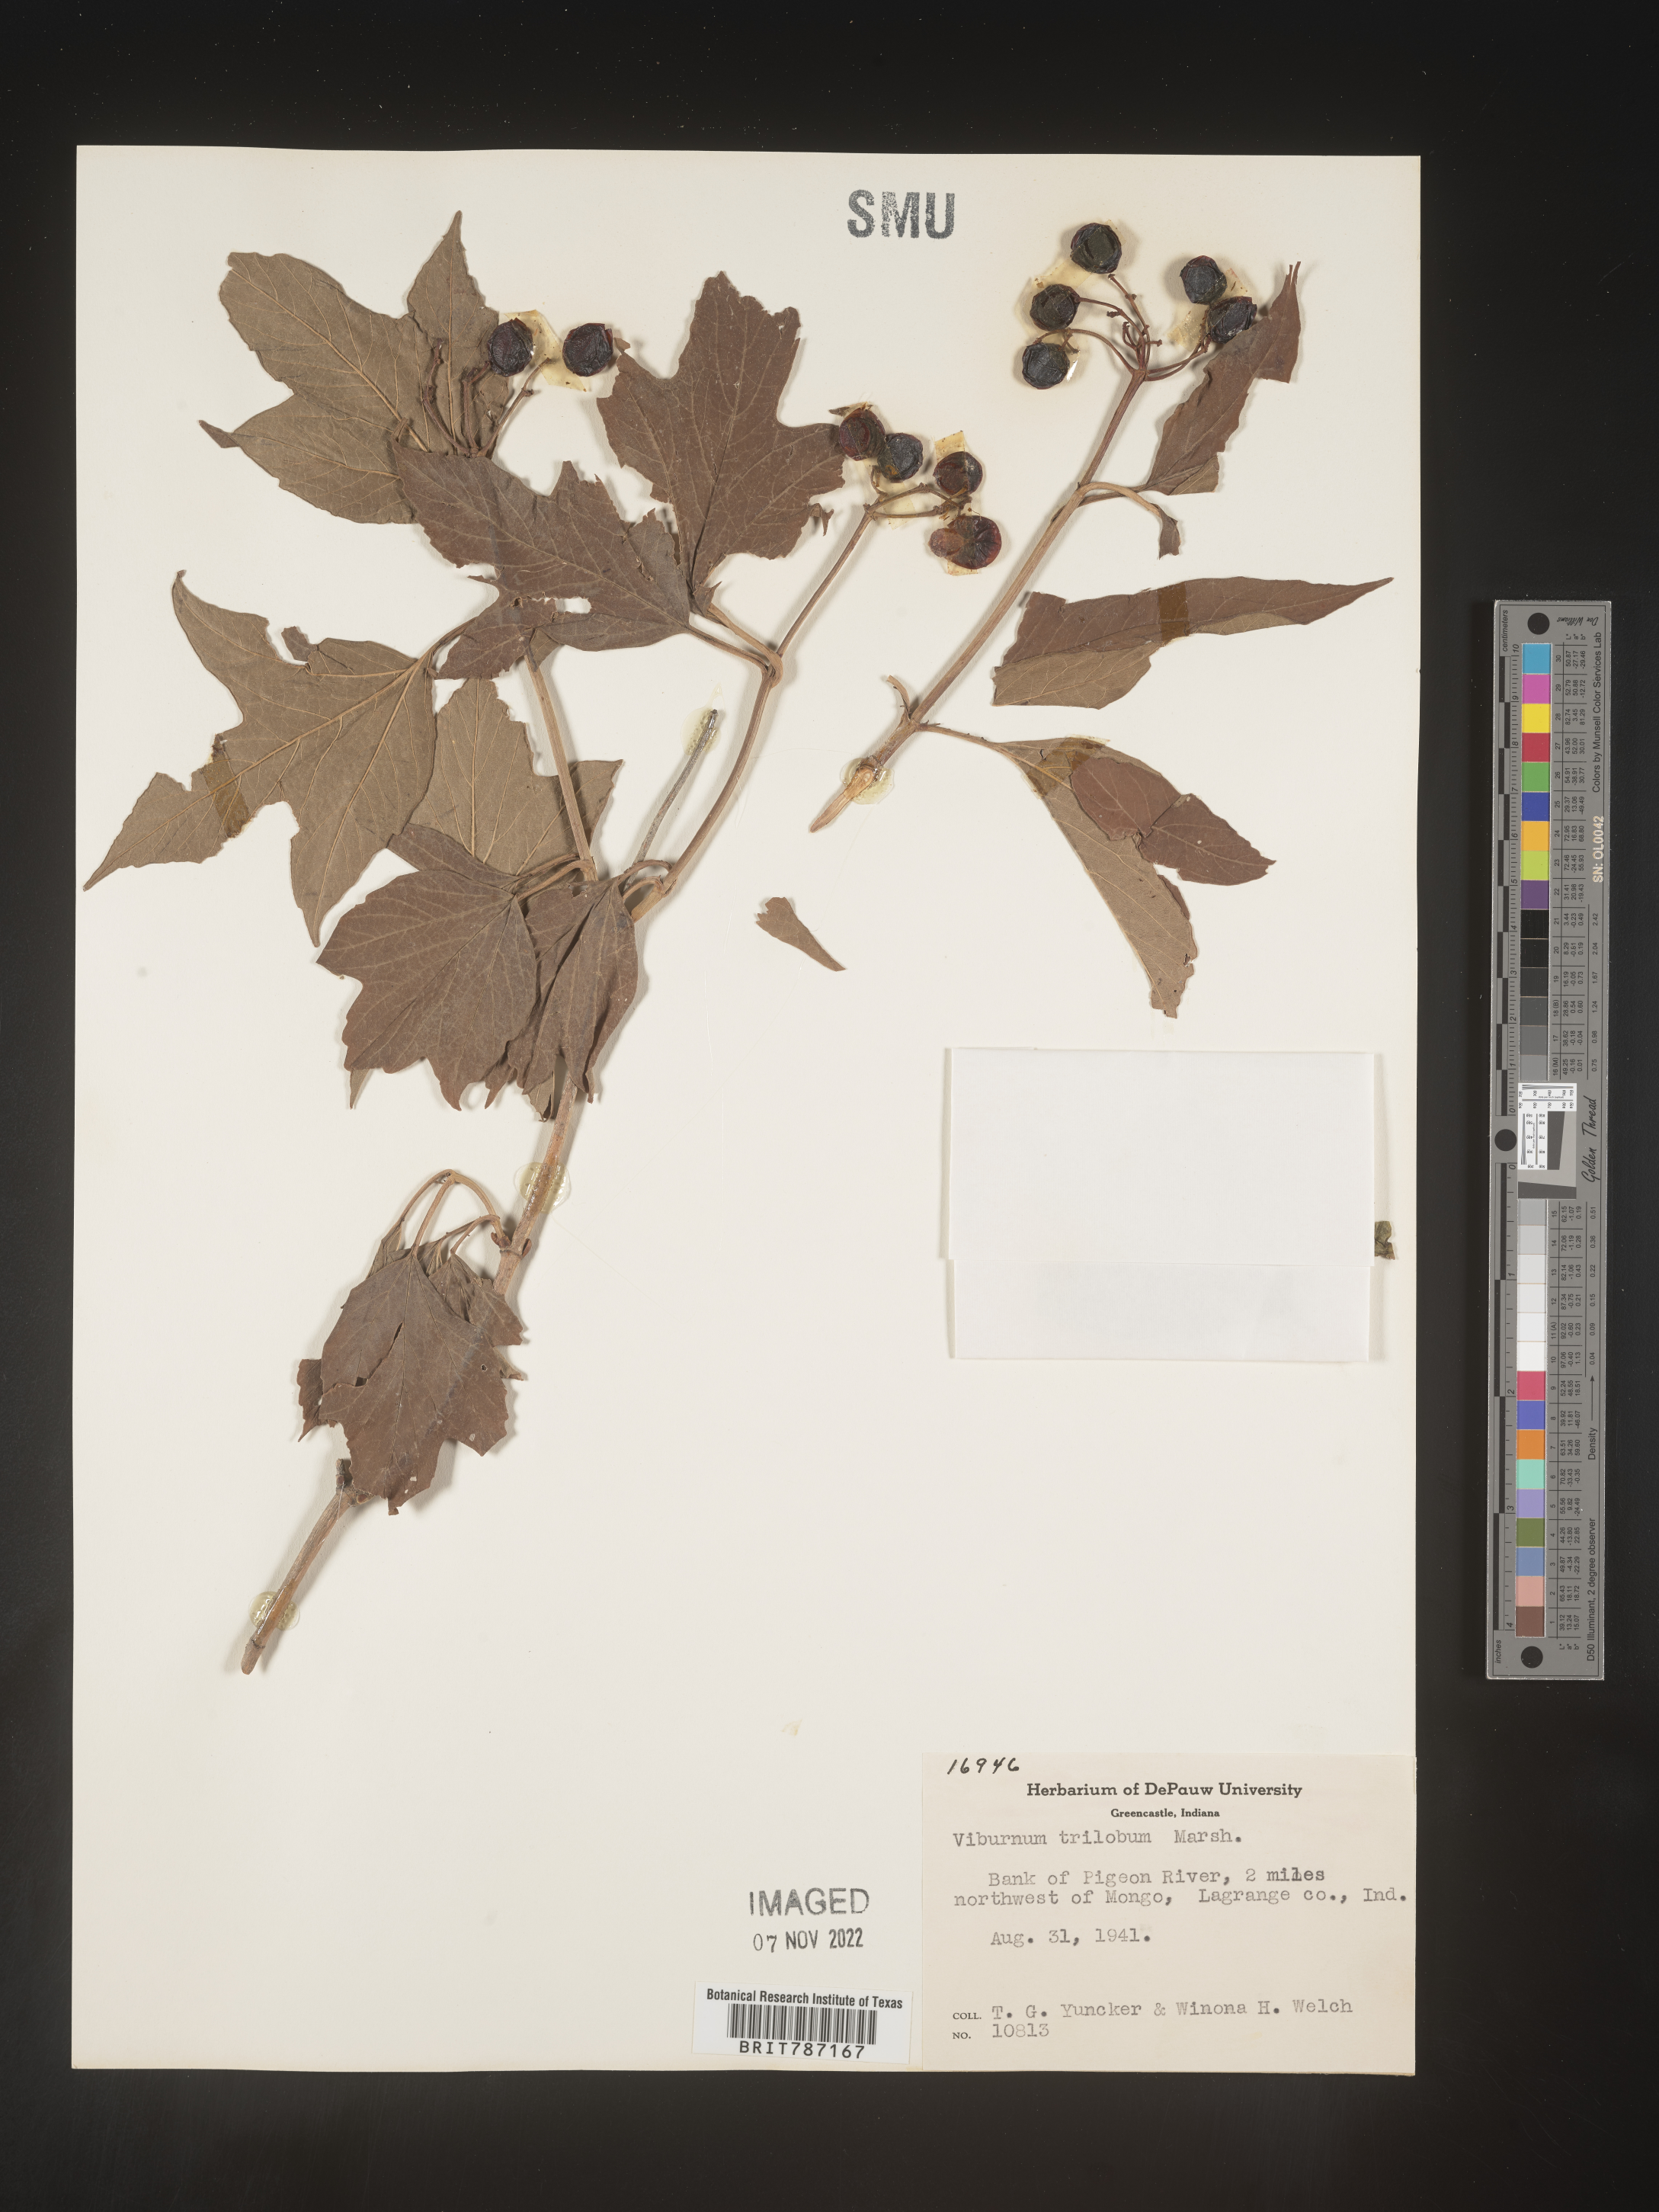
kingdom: Plantae
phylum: Tracheophyta
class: Magnoliopsida
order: Dipsacales
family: Viburnaceae
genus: Viburnum
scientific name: Viburnum trilobum
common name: American cranberrybush
